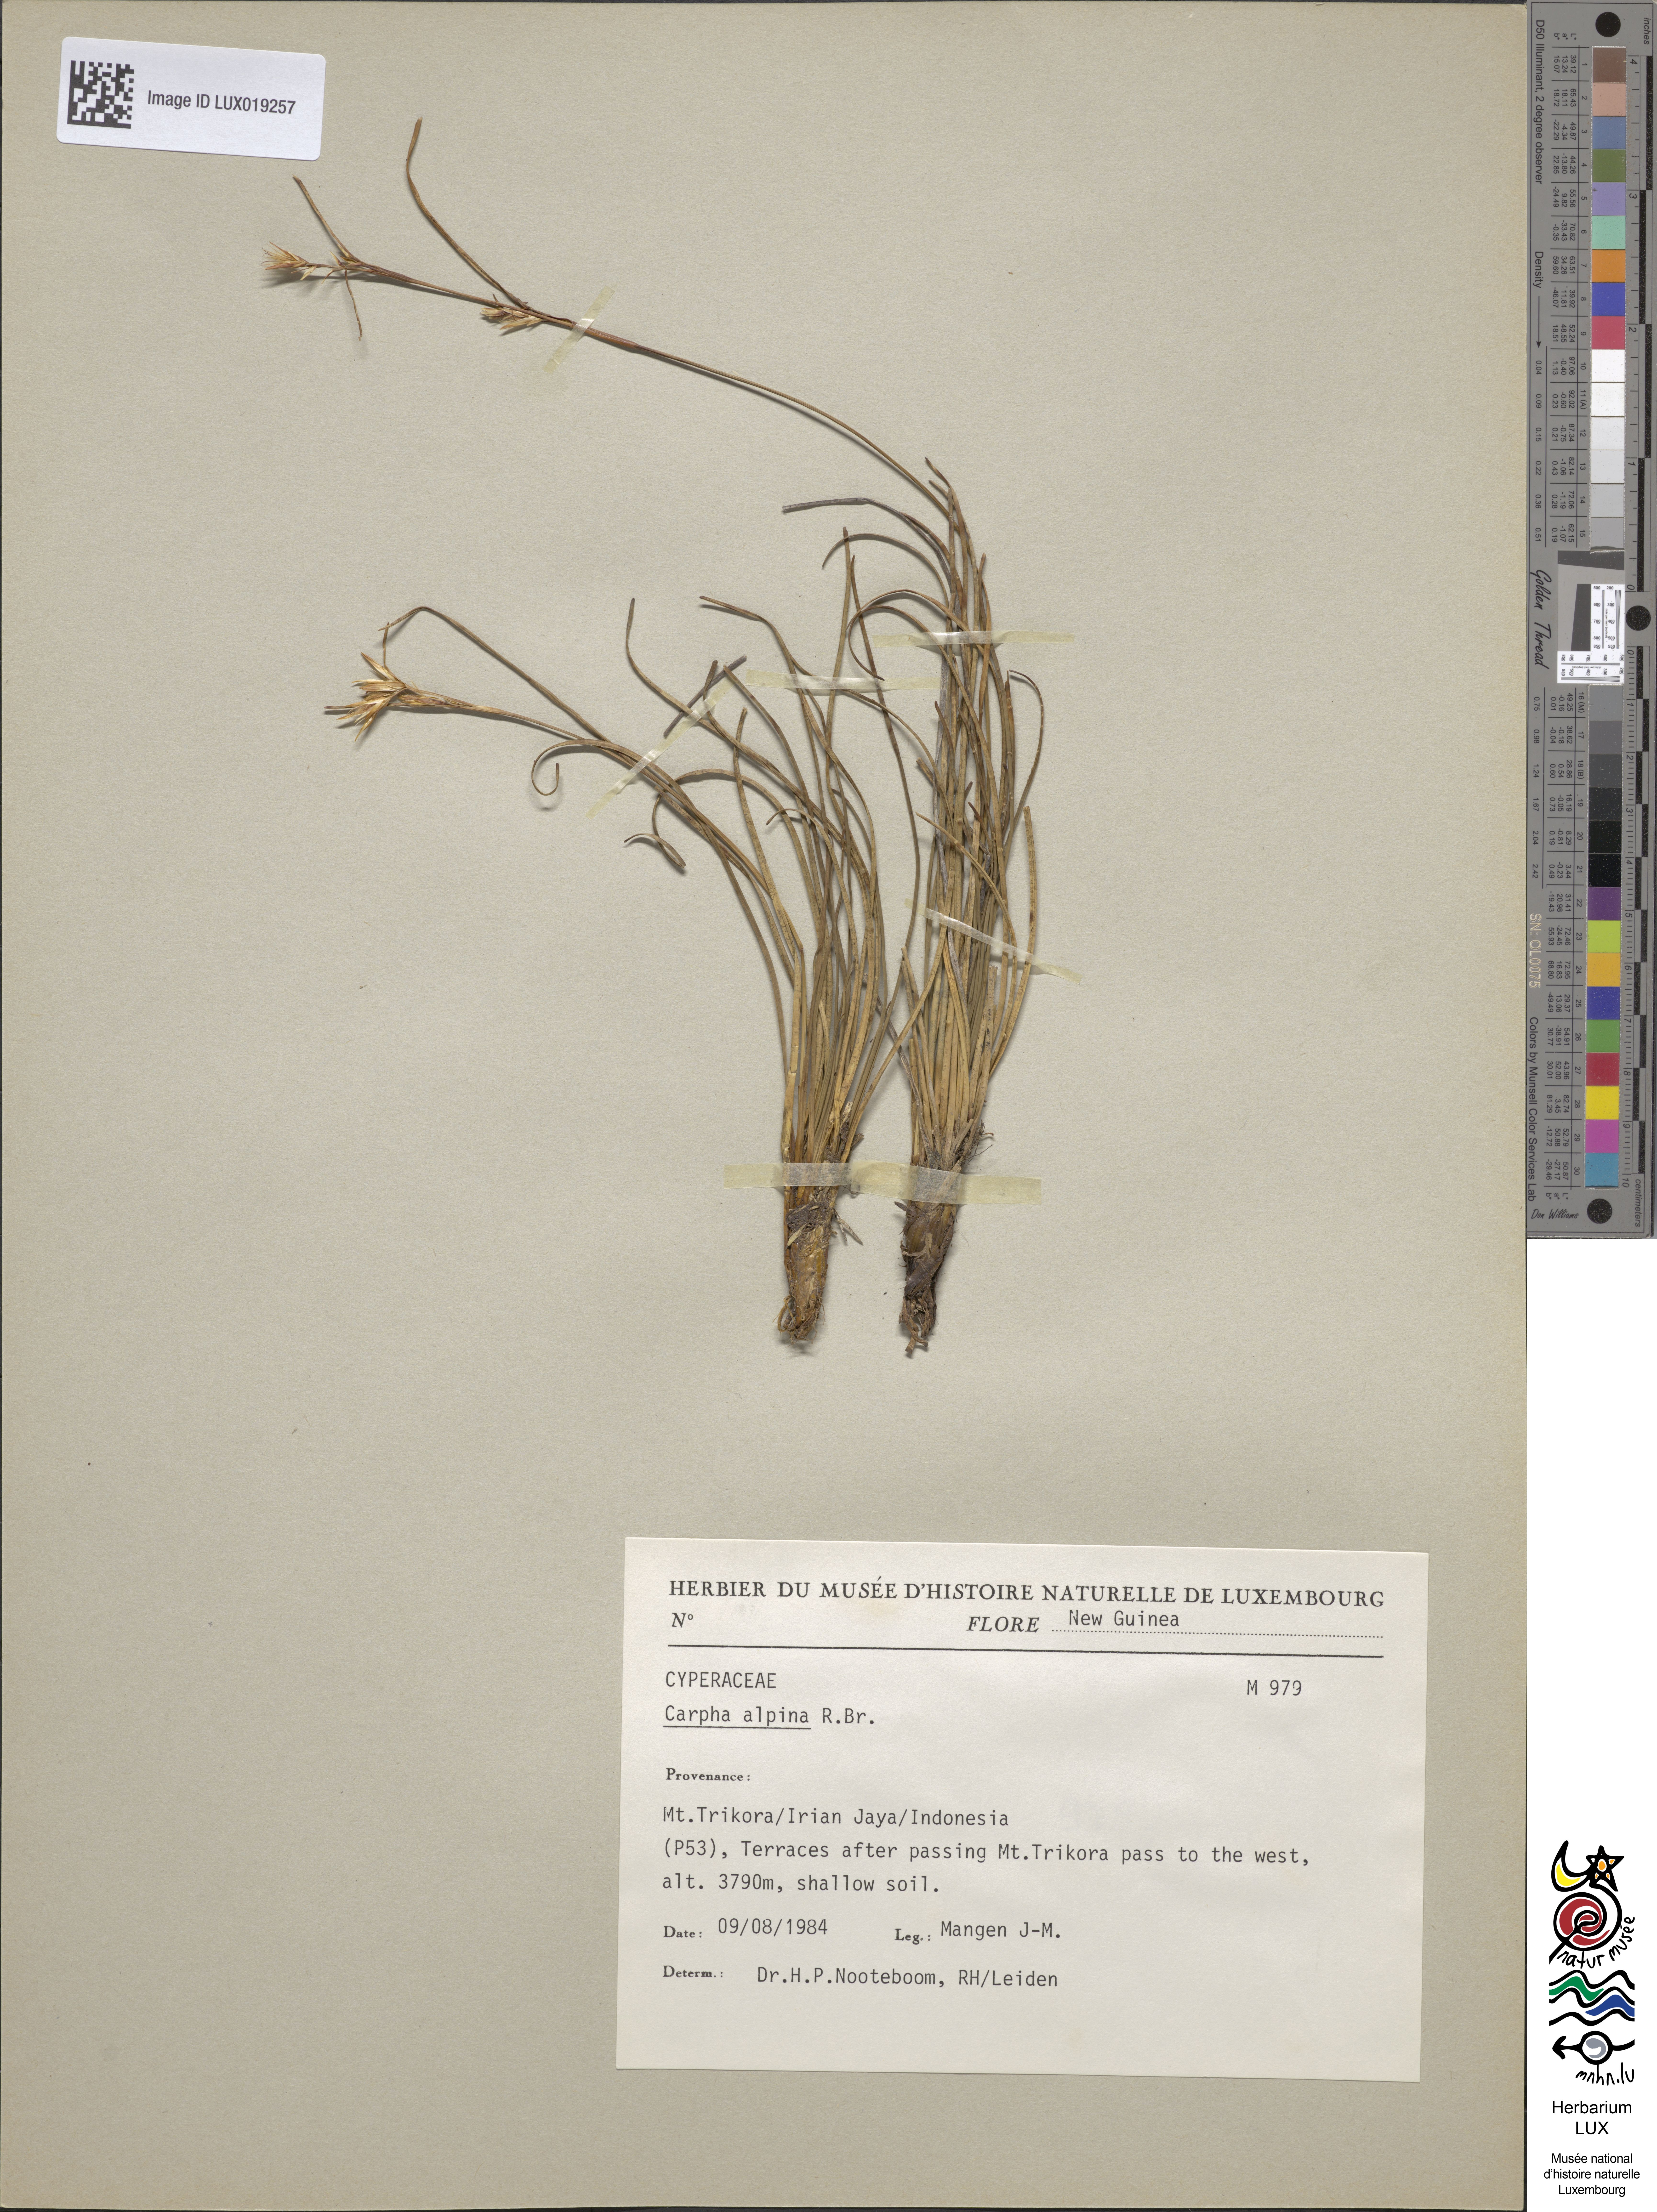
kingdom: Plantae
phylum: Tracheophyta
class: Liliopsida
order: Poales
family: Cyperaceae
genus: Carpha
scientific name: Carpha alpina
